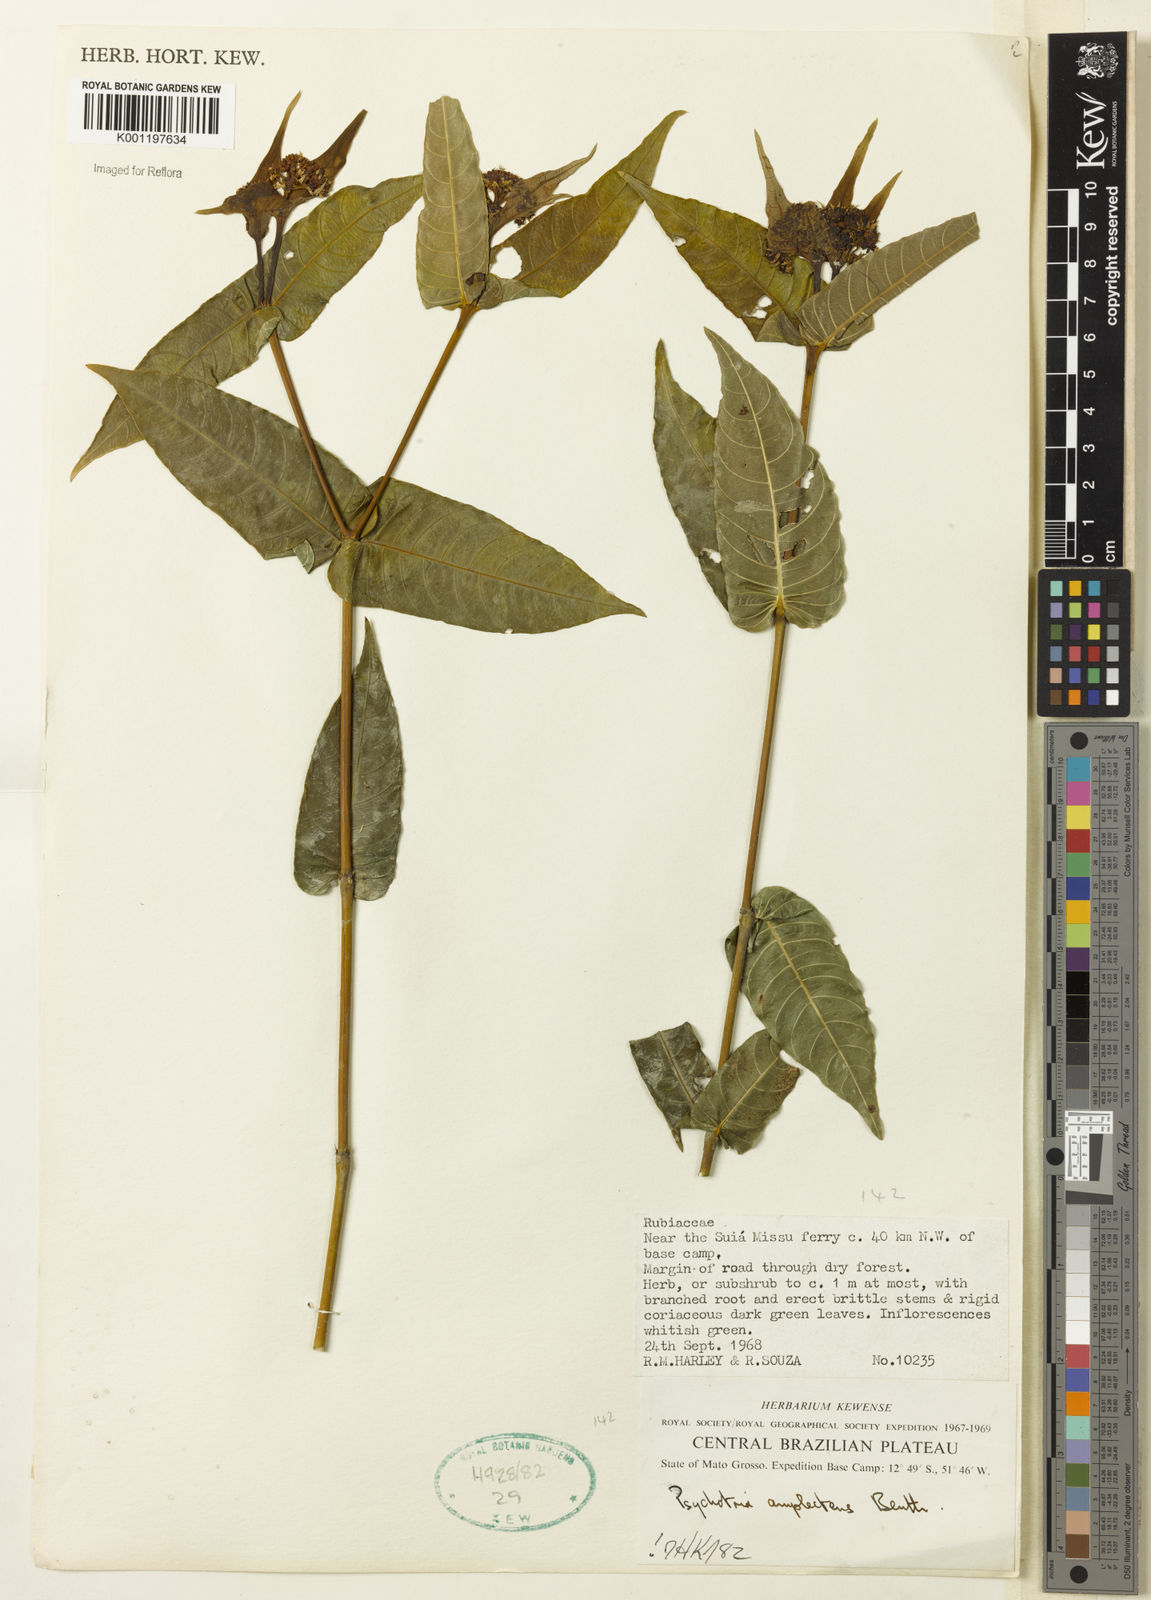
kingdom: Plantae
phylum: Tracheophyta
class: Magnoliopsida
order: Gentianales
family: Rubiaceae
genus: Psychotria
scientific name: Psychotria
